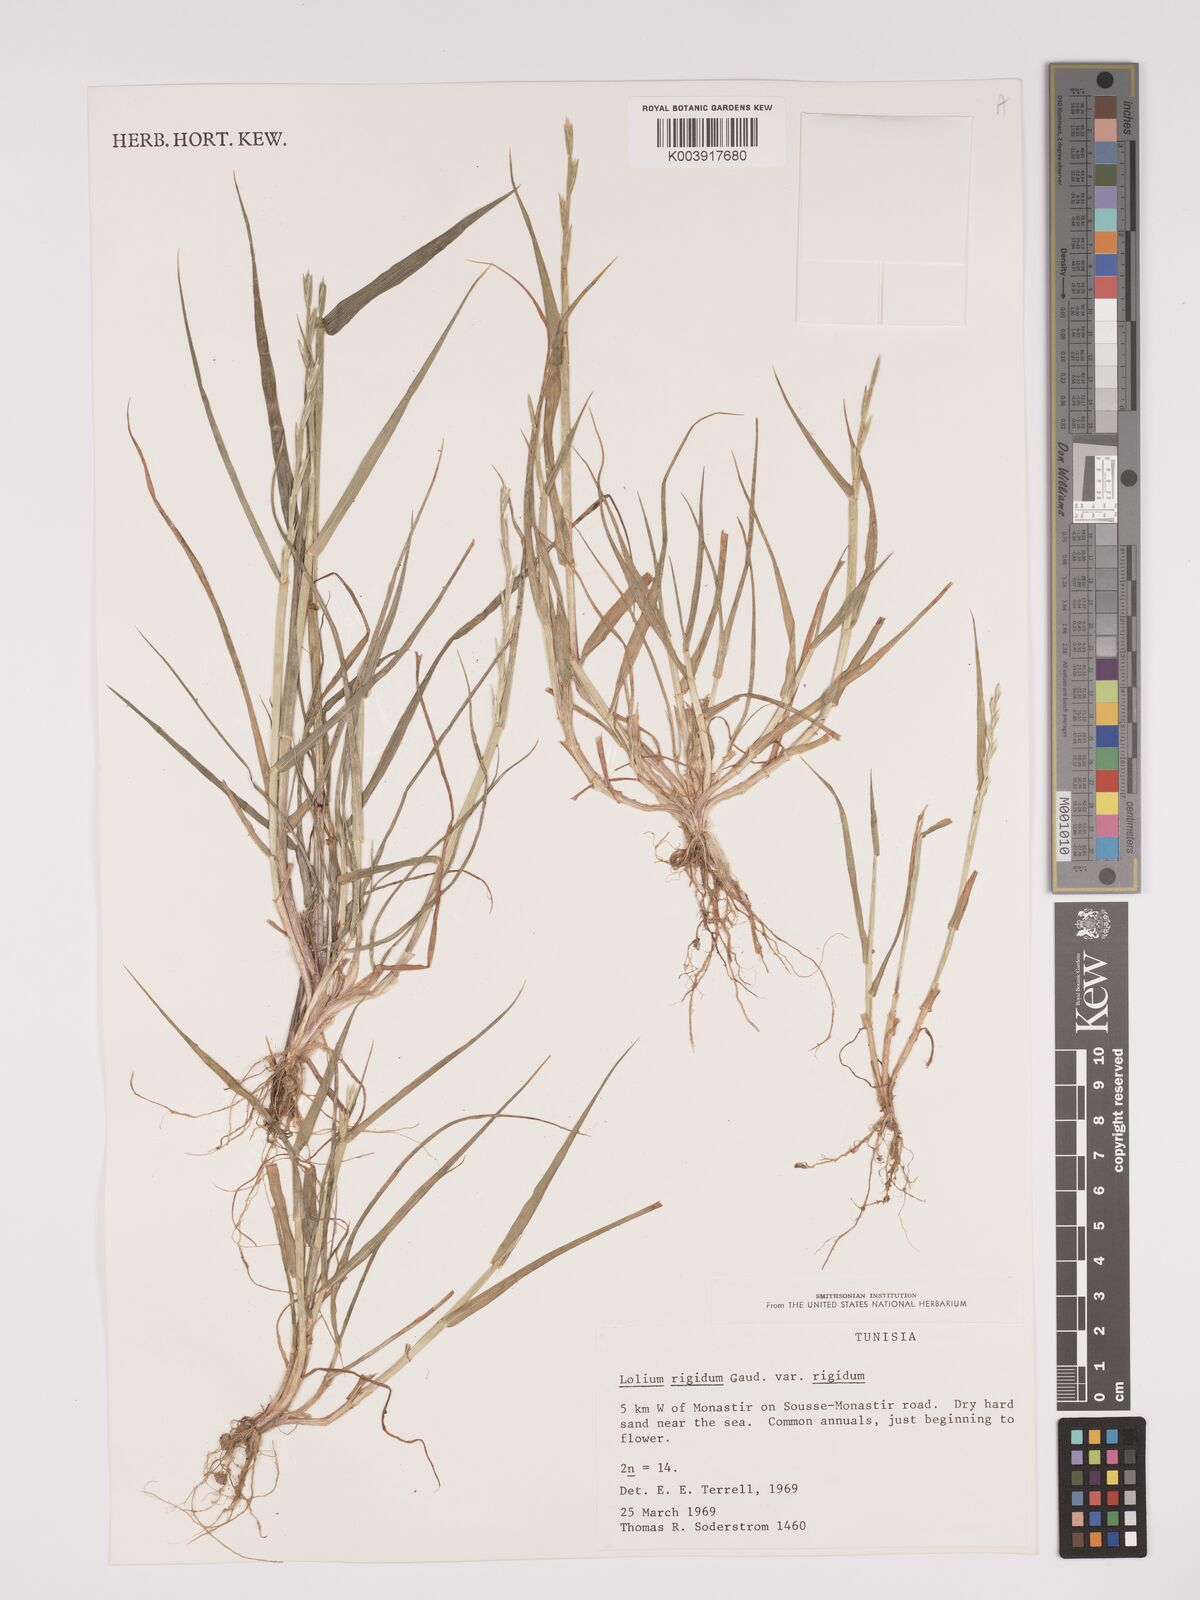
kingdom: Plantae
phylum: Tracheophyta
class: Liliopsida
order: Poales
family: Poaceae
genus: Lolium
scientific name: Lolium rigidum
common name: Wimmera ryegrass
